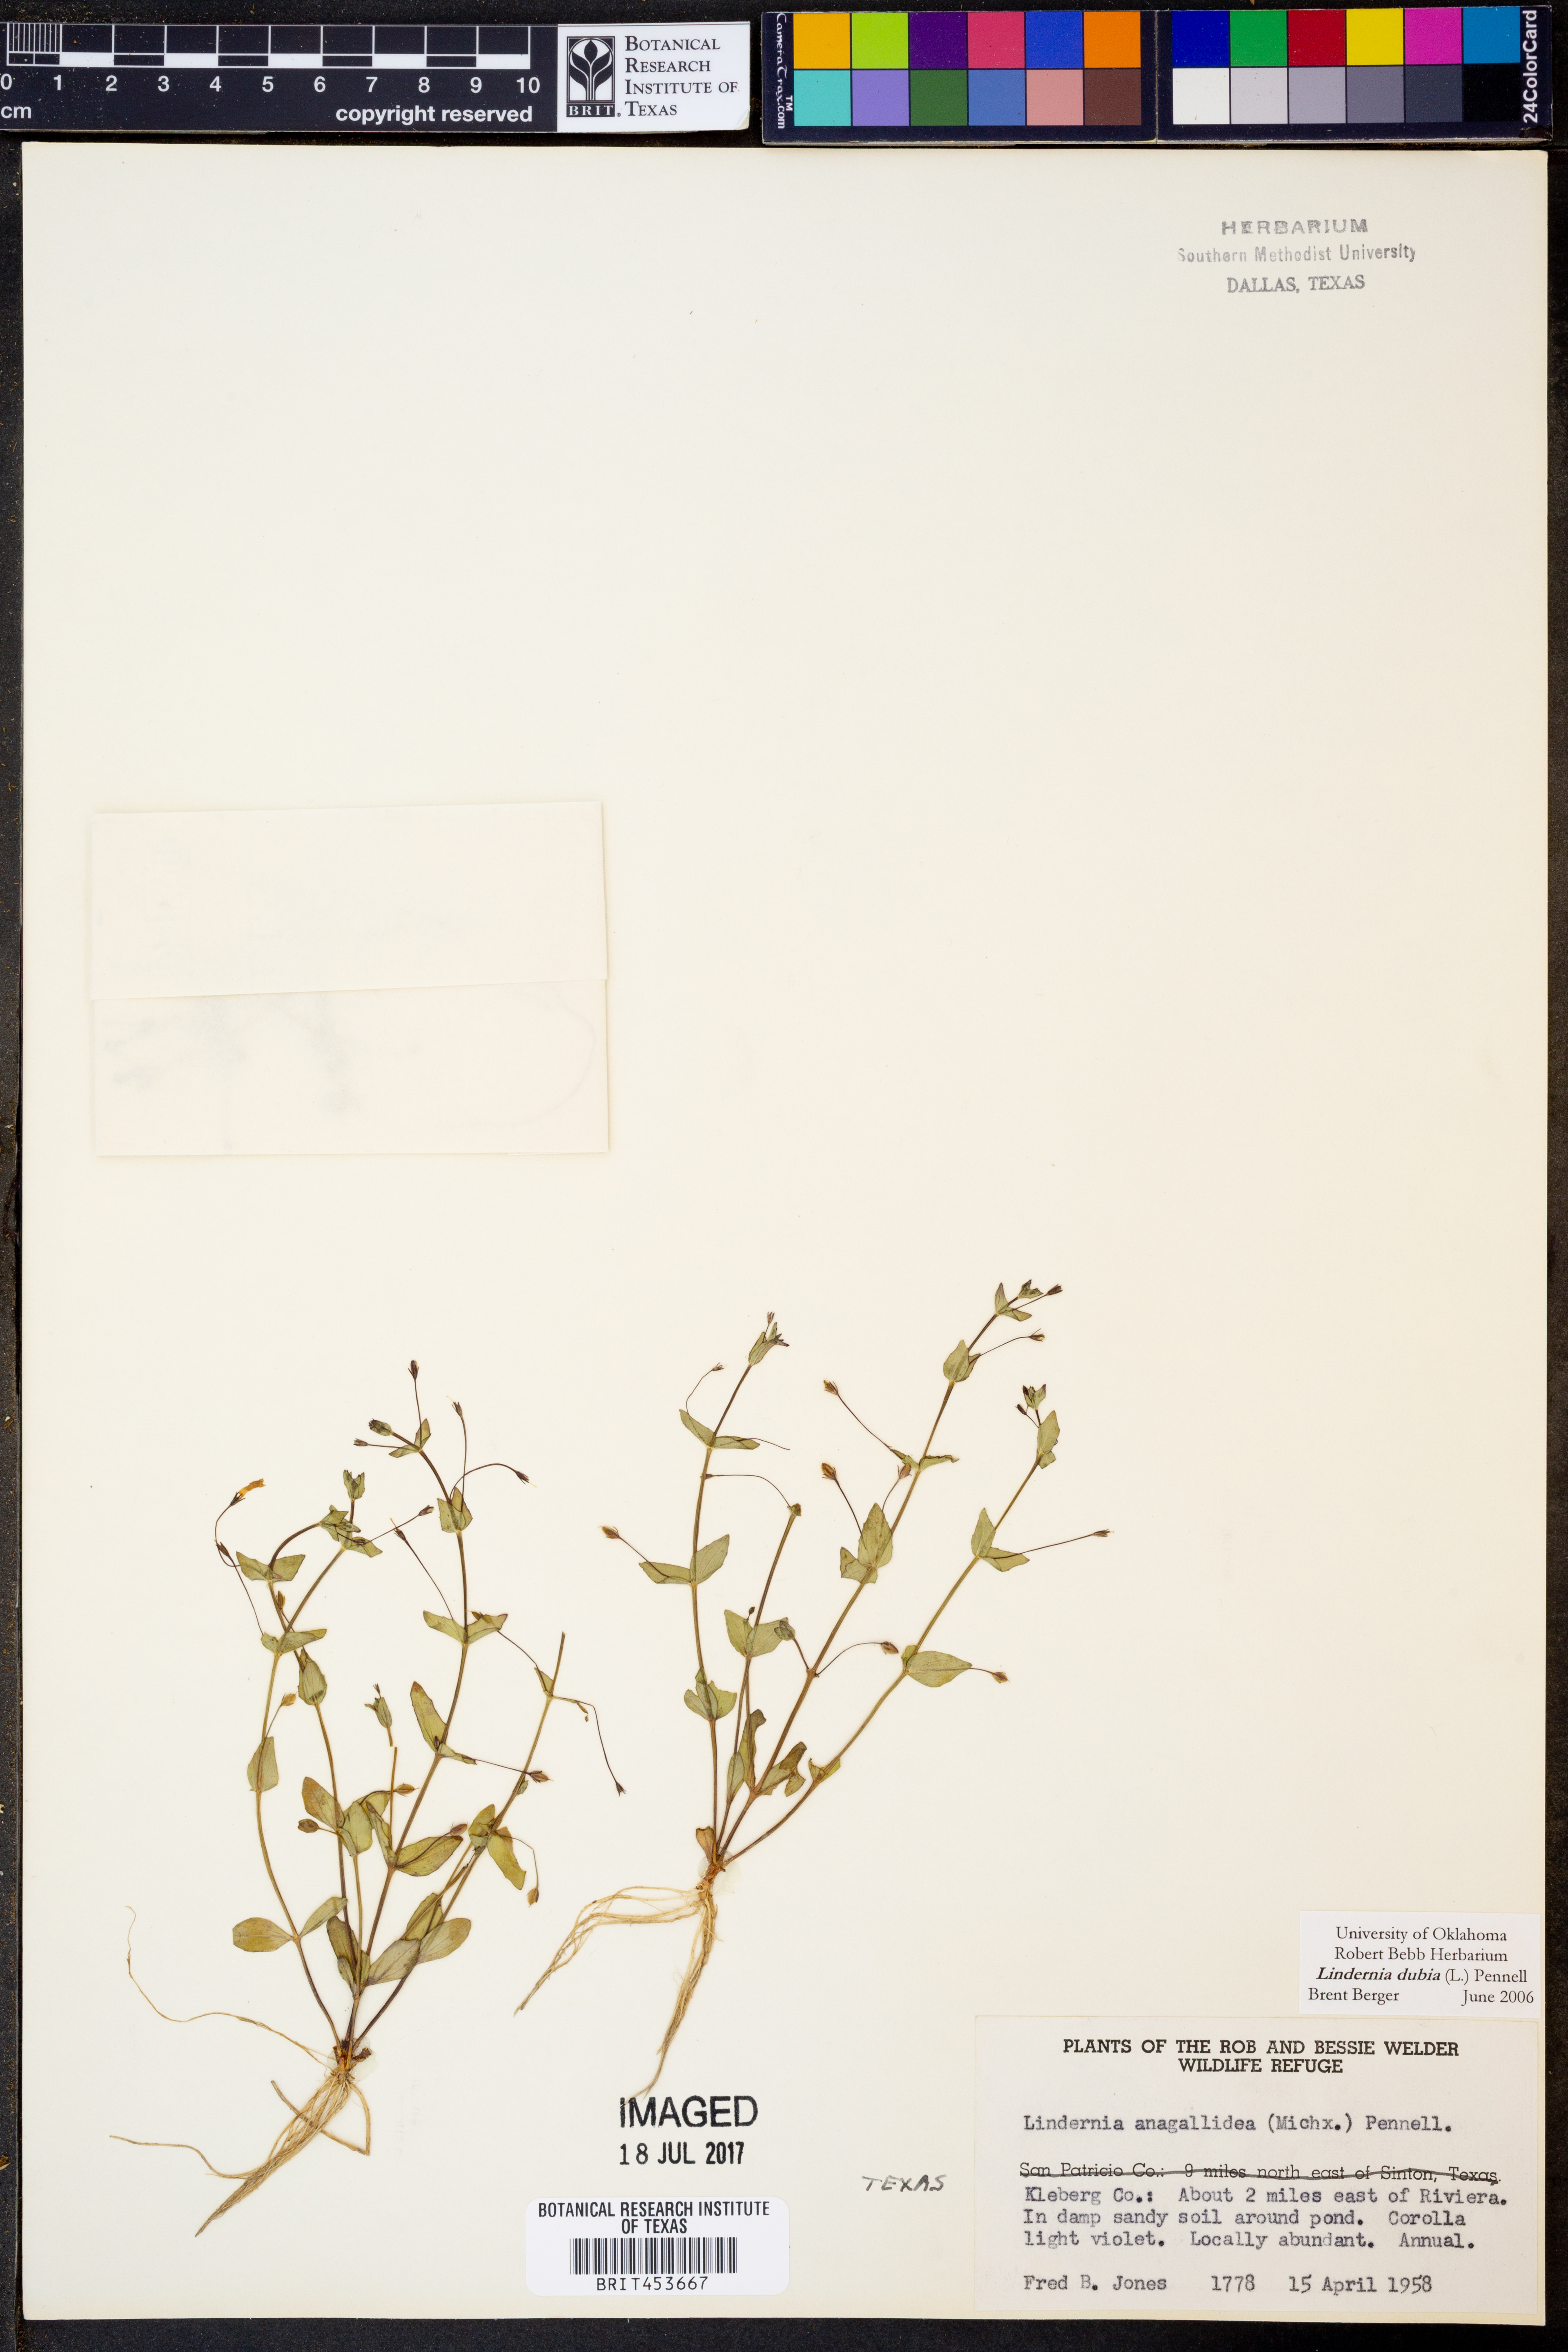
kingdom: Plantae
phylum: Tracheophyta
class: Magnoliopsida
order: Lamiales
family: Linderniaceae
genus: Lindernia
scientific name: Lindernia dubia
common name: Annual false pimpernel
